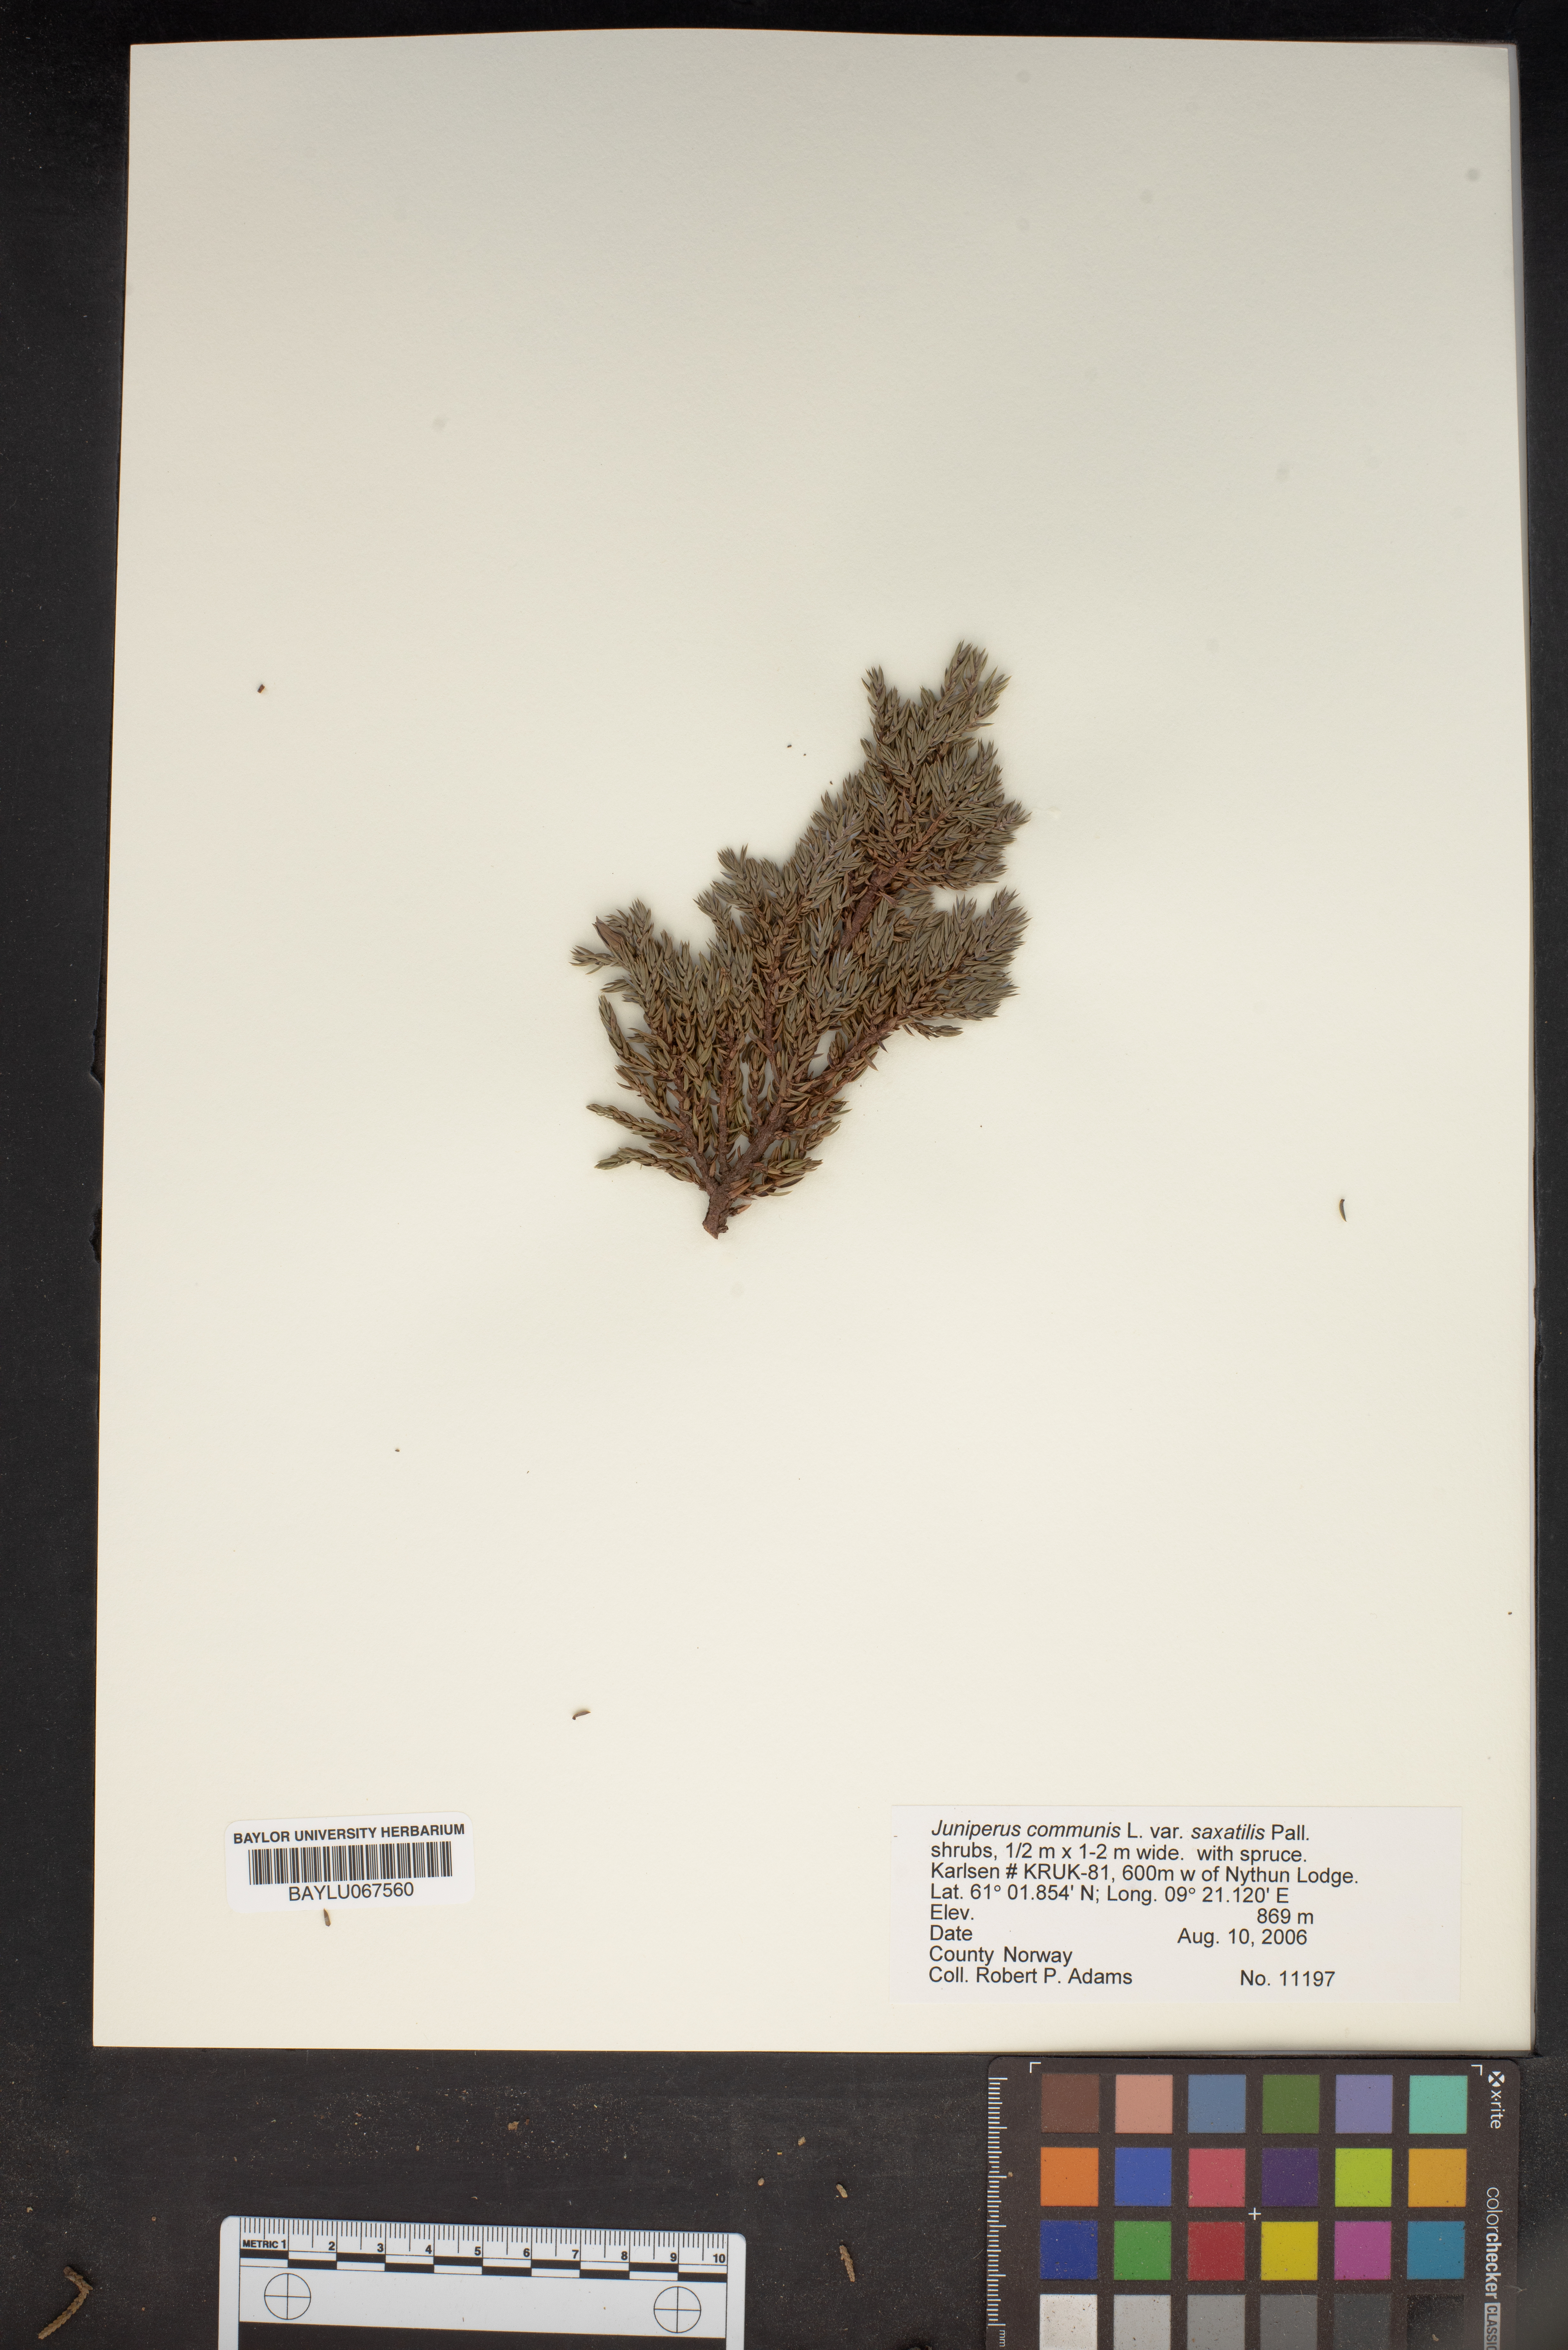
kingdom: Plantae
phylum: Tracheophyta
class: Pinopsida
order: Pinales
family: Cupressaceae
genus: Juniperus
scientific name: Juniperus communis
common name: Common juniper
